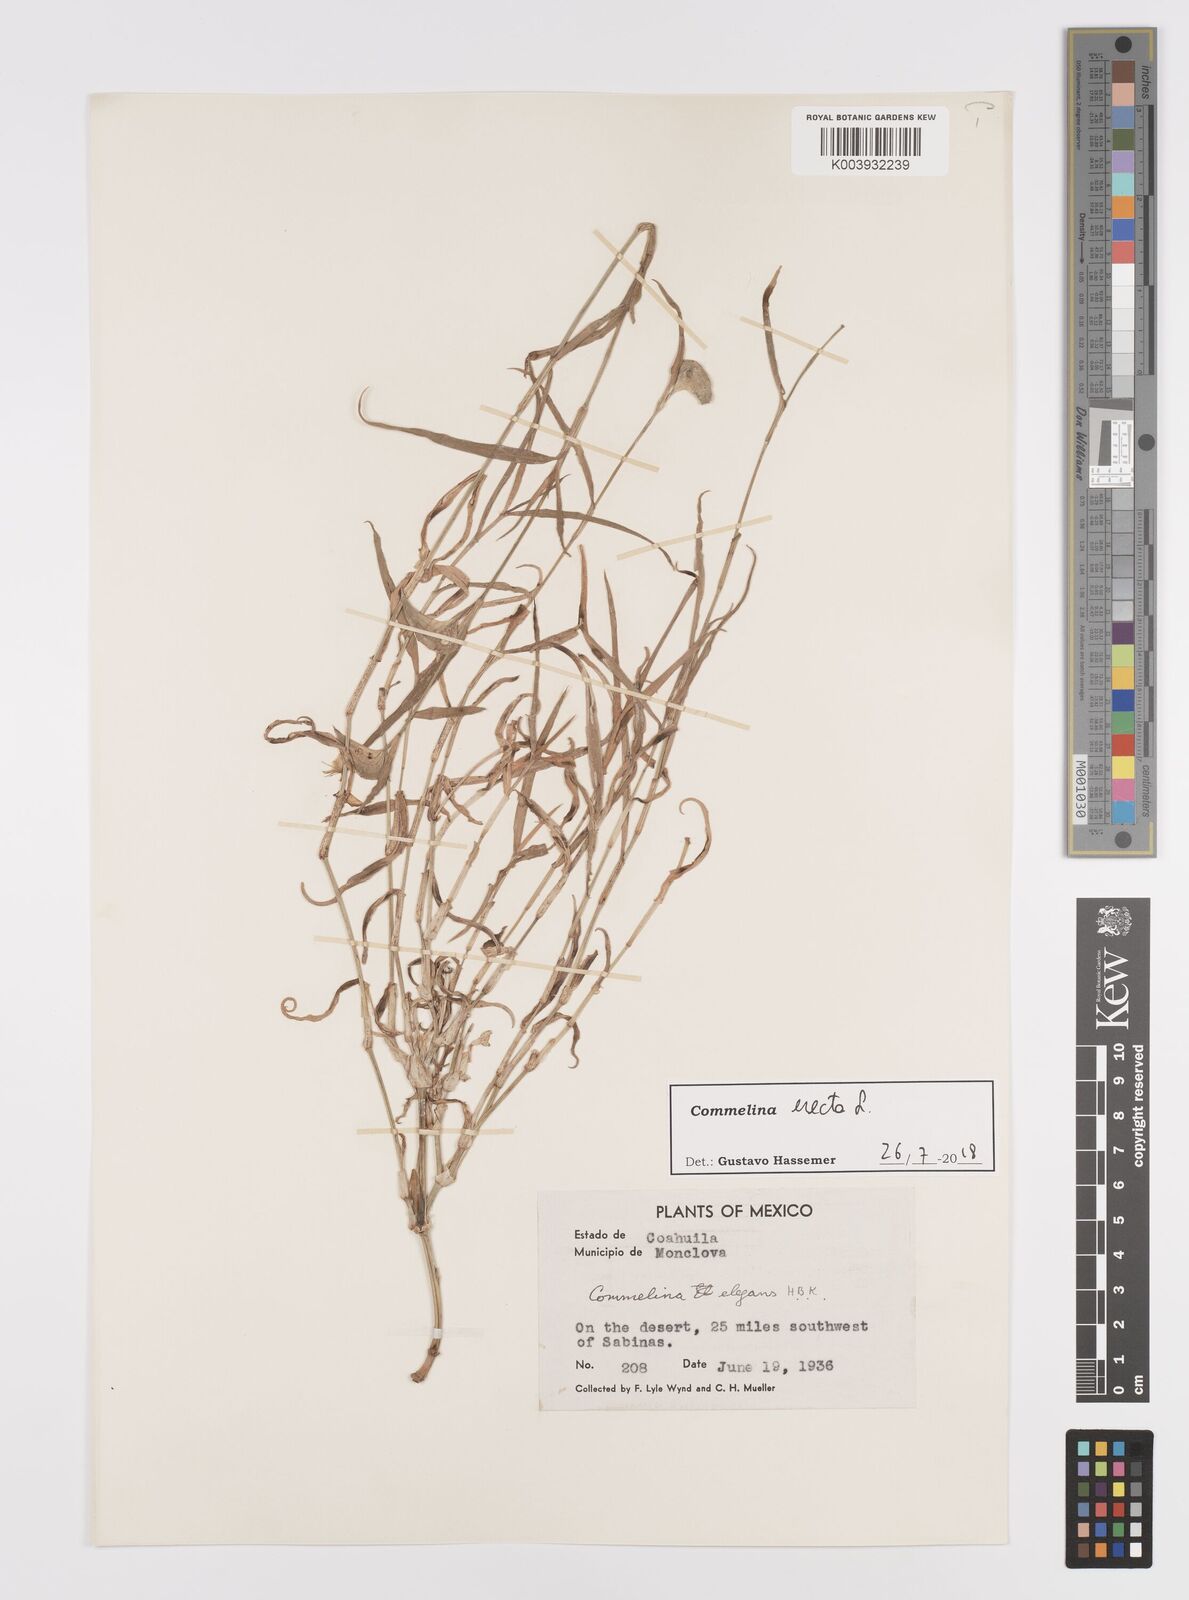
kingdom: Plantae
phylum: Tracheophyta
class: Liliopsida
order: Commelinales
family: Commelinaceae
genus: Commelina
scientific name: Commelina erecta
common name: Blousel blommetjie
